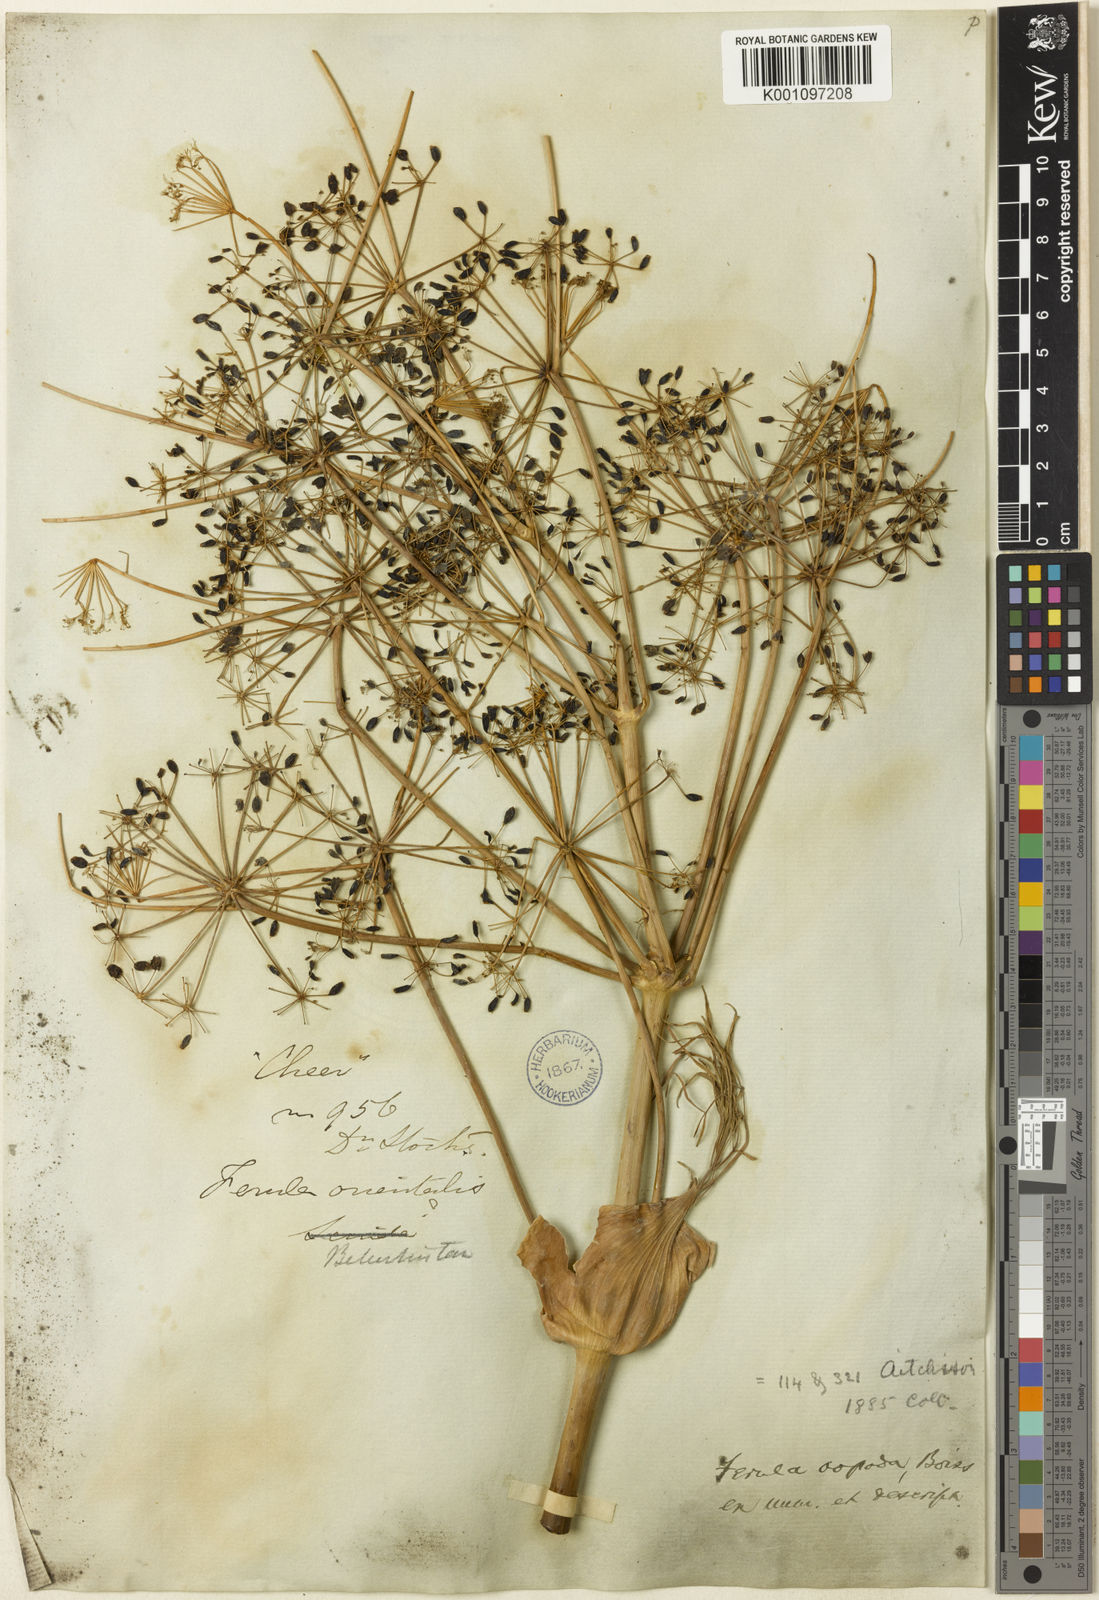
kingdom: Plantae
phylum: Tracheophyta
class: Magnoliopsida
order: Apiales
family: Apiaceae
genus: Ferula
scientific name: Ferula oopoda
